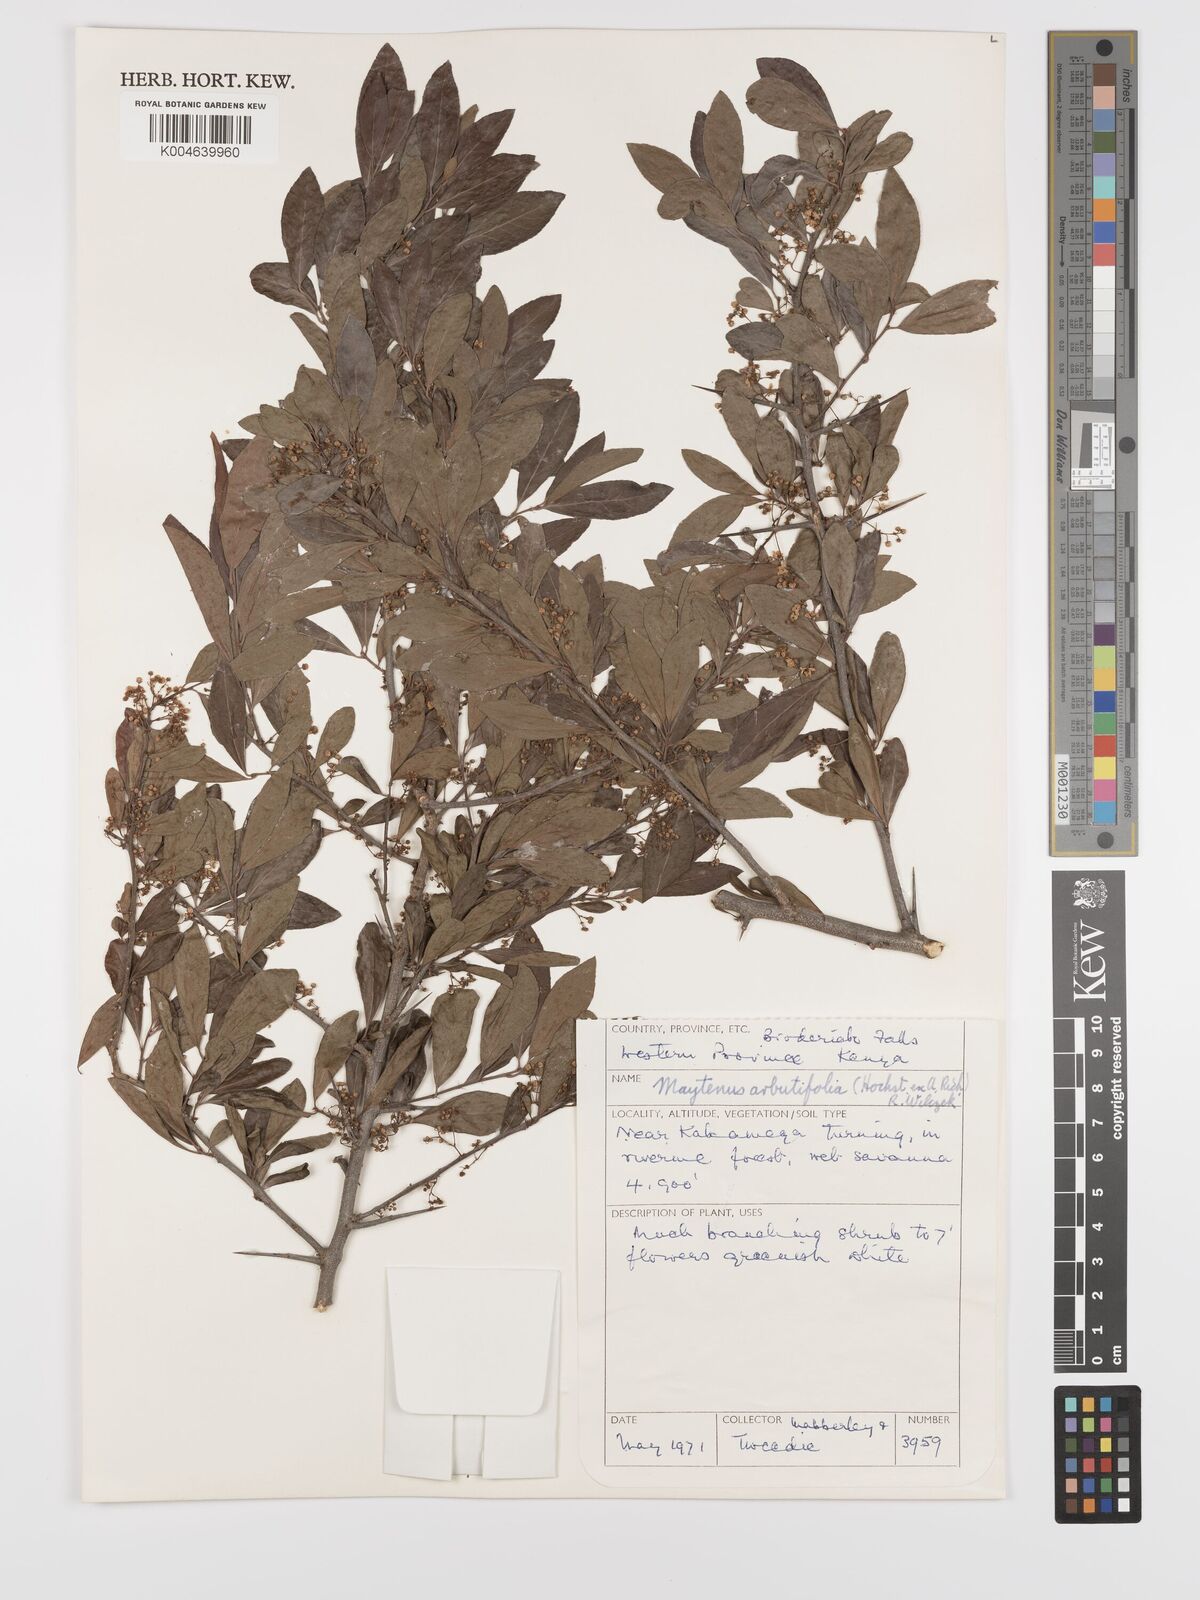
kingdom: Plantae
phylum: Tracheophyta
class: Magnoliopsida
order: Celastrales
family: Celastraceae
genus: Gymnosporia
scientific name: Gymnosporia arbutifolia
